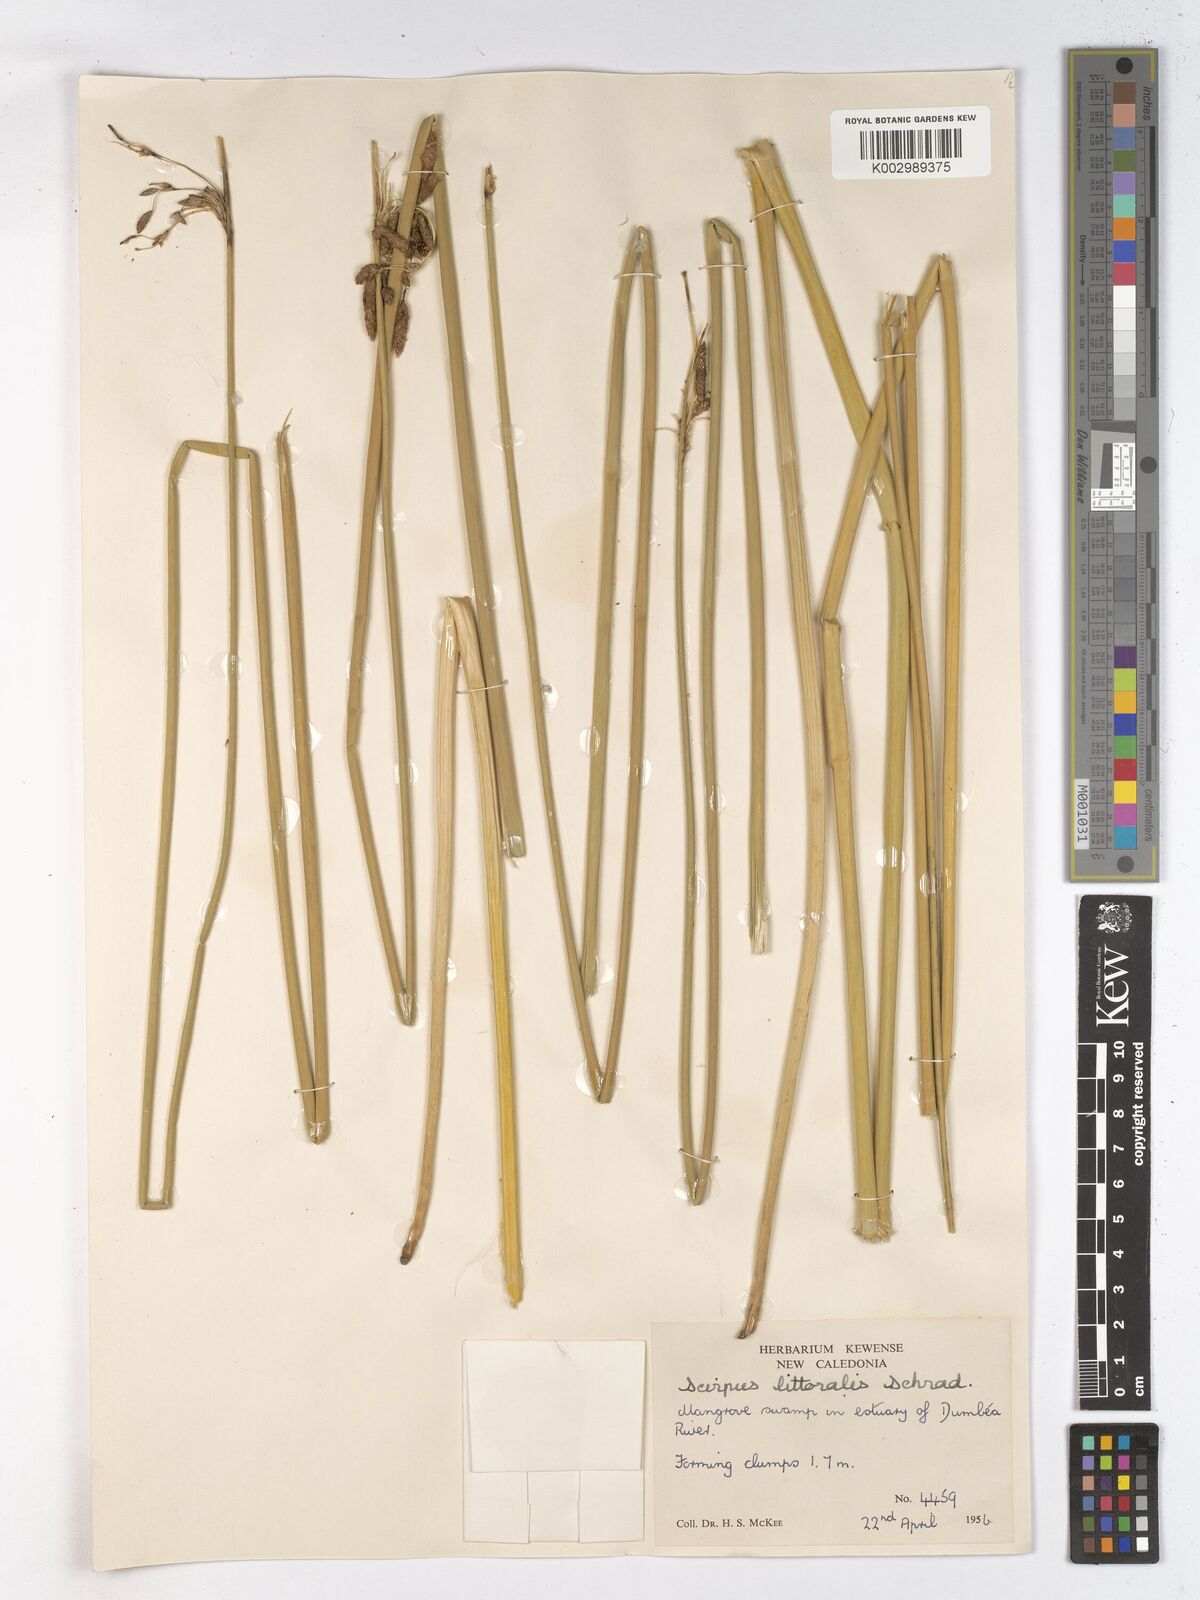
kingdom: Plantae
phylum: Tracheophyta
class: Liliopsida
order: Poales
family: Cyperaceae
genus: Schoenoplectus
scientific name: Schoenoplectus litoralis
